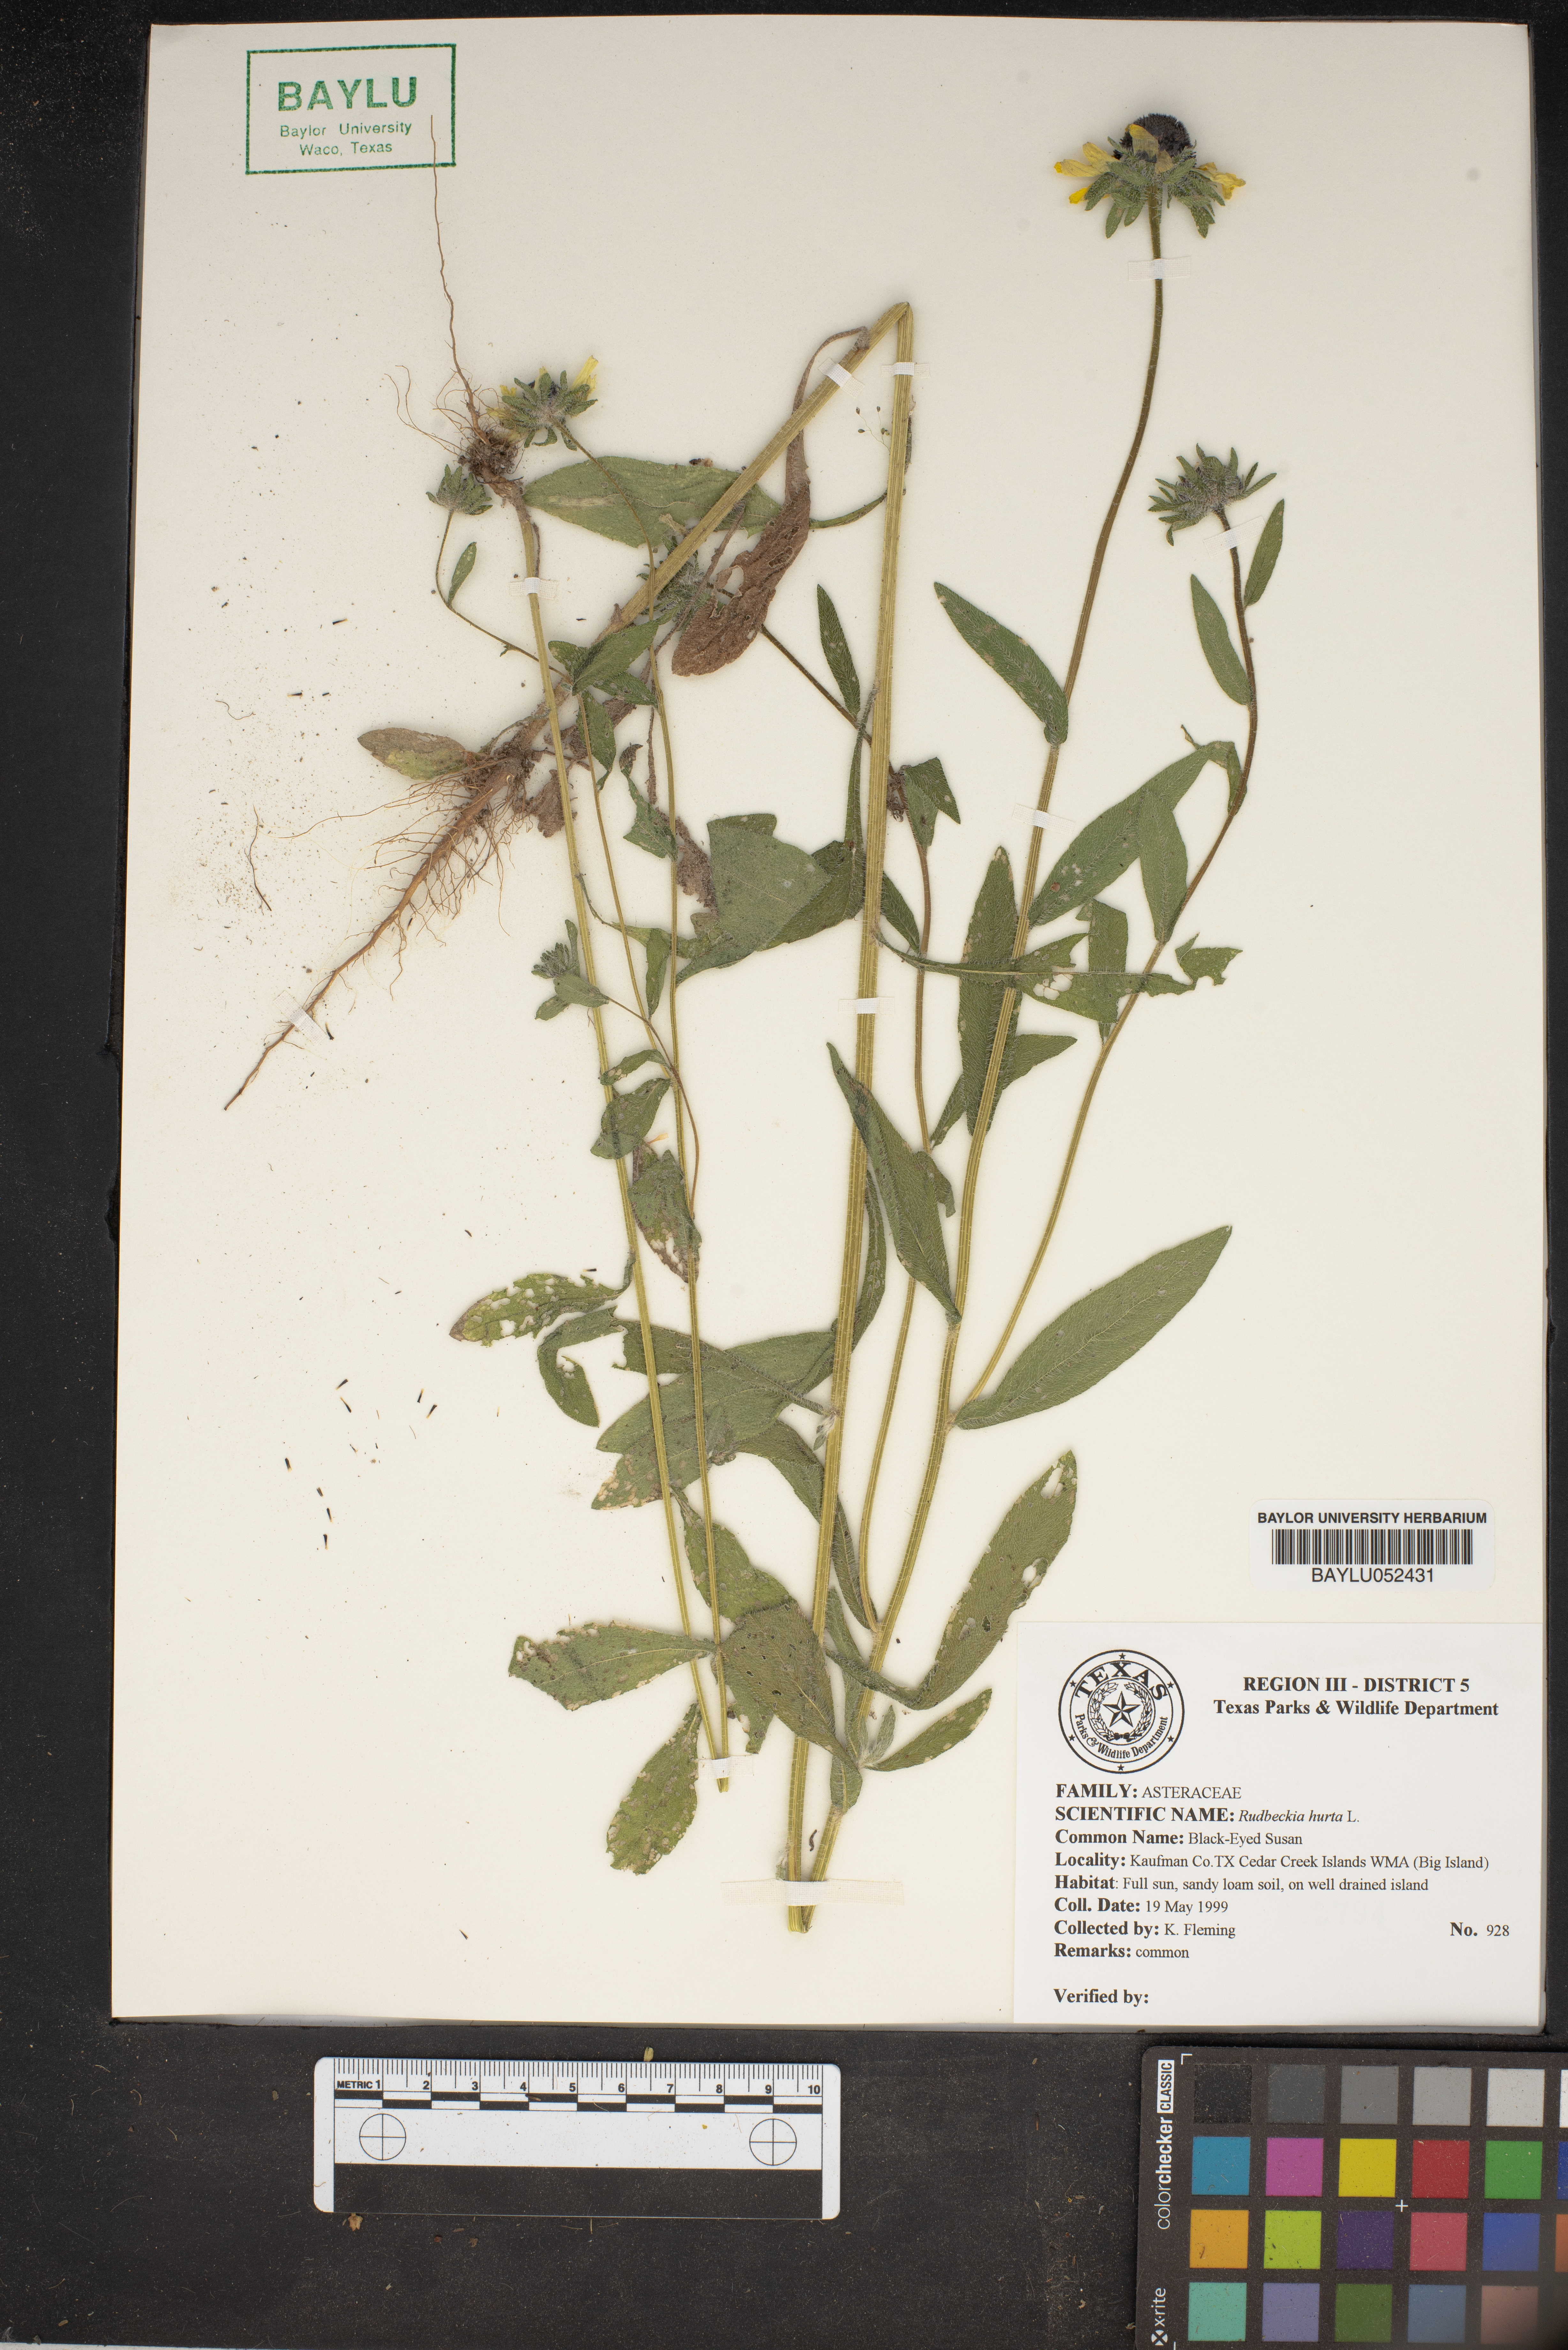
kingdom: Plantae
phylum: Tracheophyta
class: Magnoliopsida
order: Asterales
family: Asteraceae
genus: Rudbeckia
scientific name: Rudbeckia hirta
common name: Black-eyed-susan
